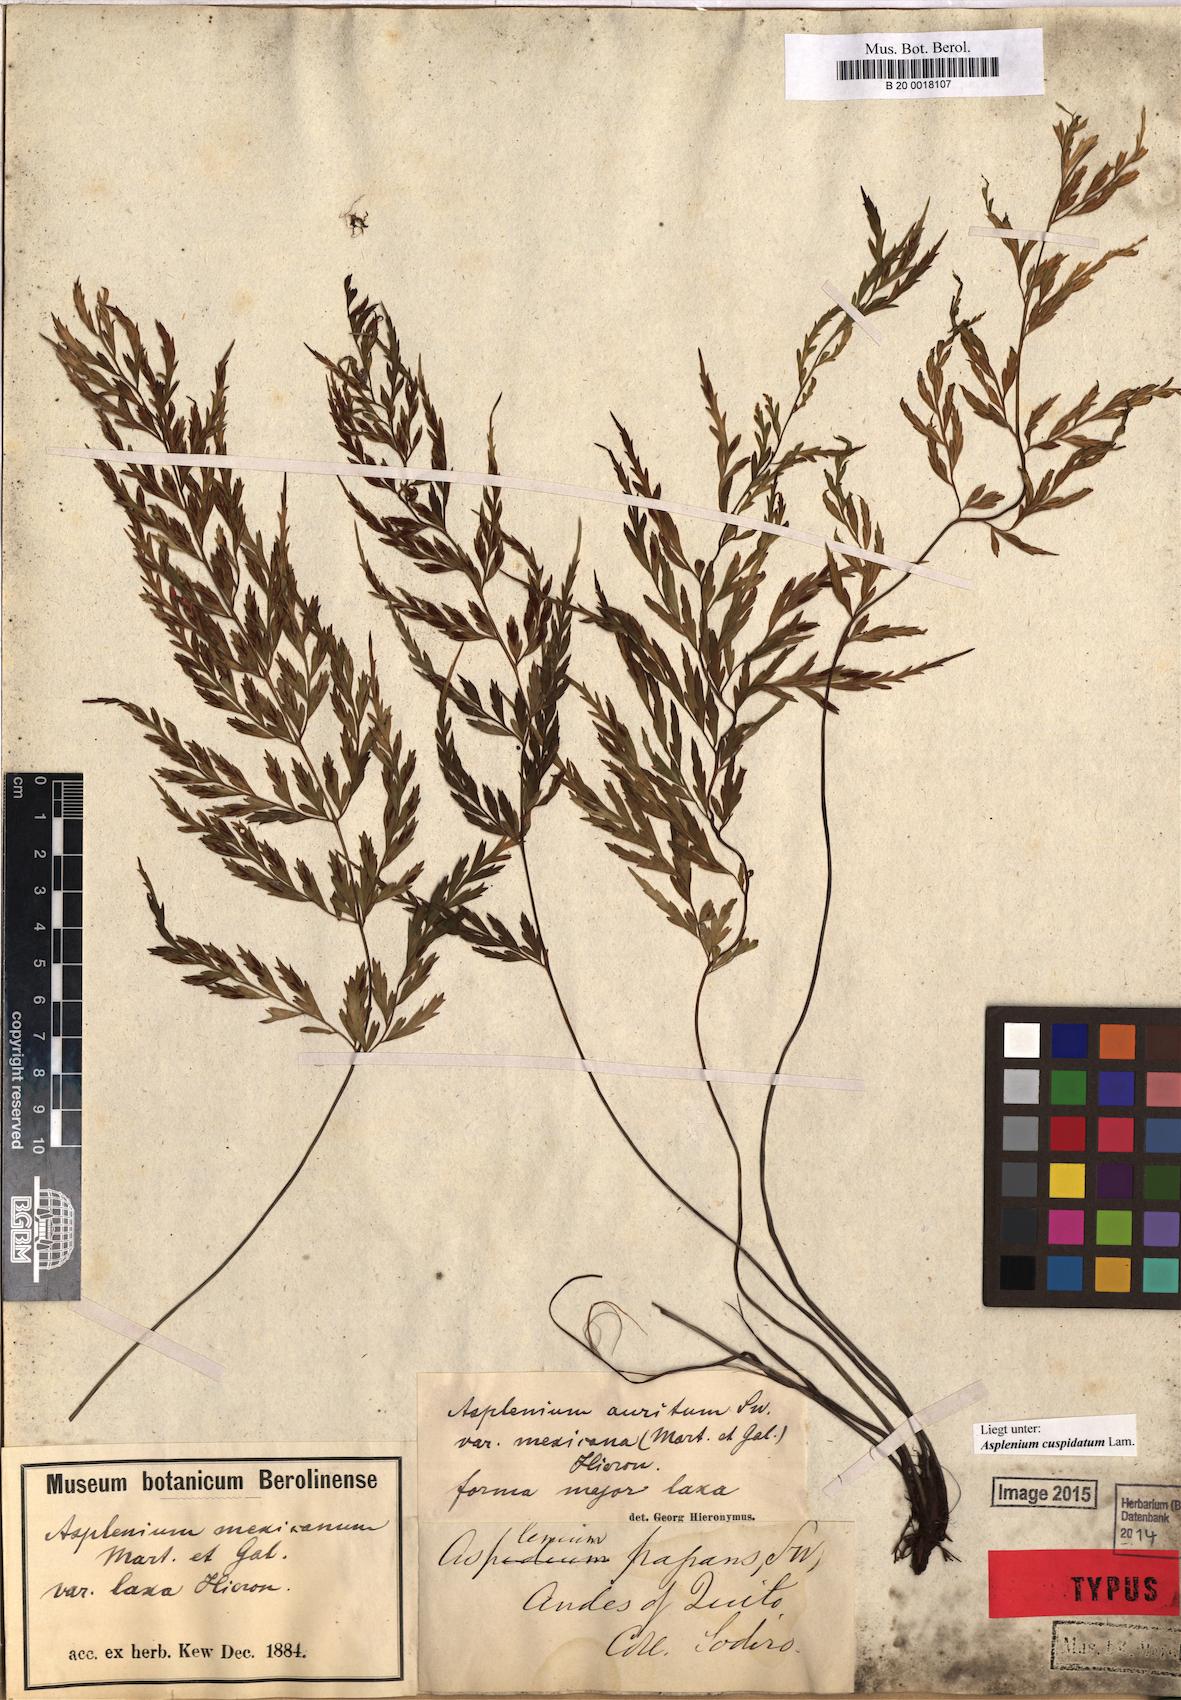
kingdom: Plantae
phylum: Tracheophyta
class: Polypodiopsida
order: Polypodiales
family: Aspleniaceae
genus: Asplenium
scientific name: Asplenium cuspidatum
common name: Eared spleenwort
